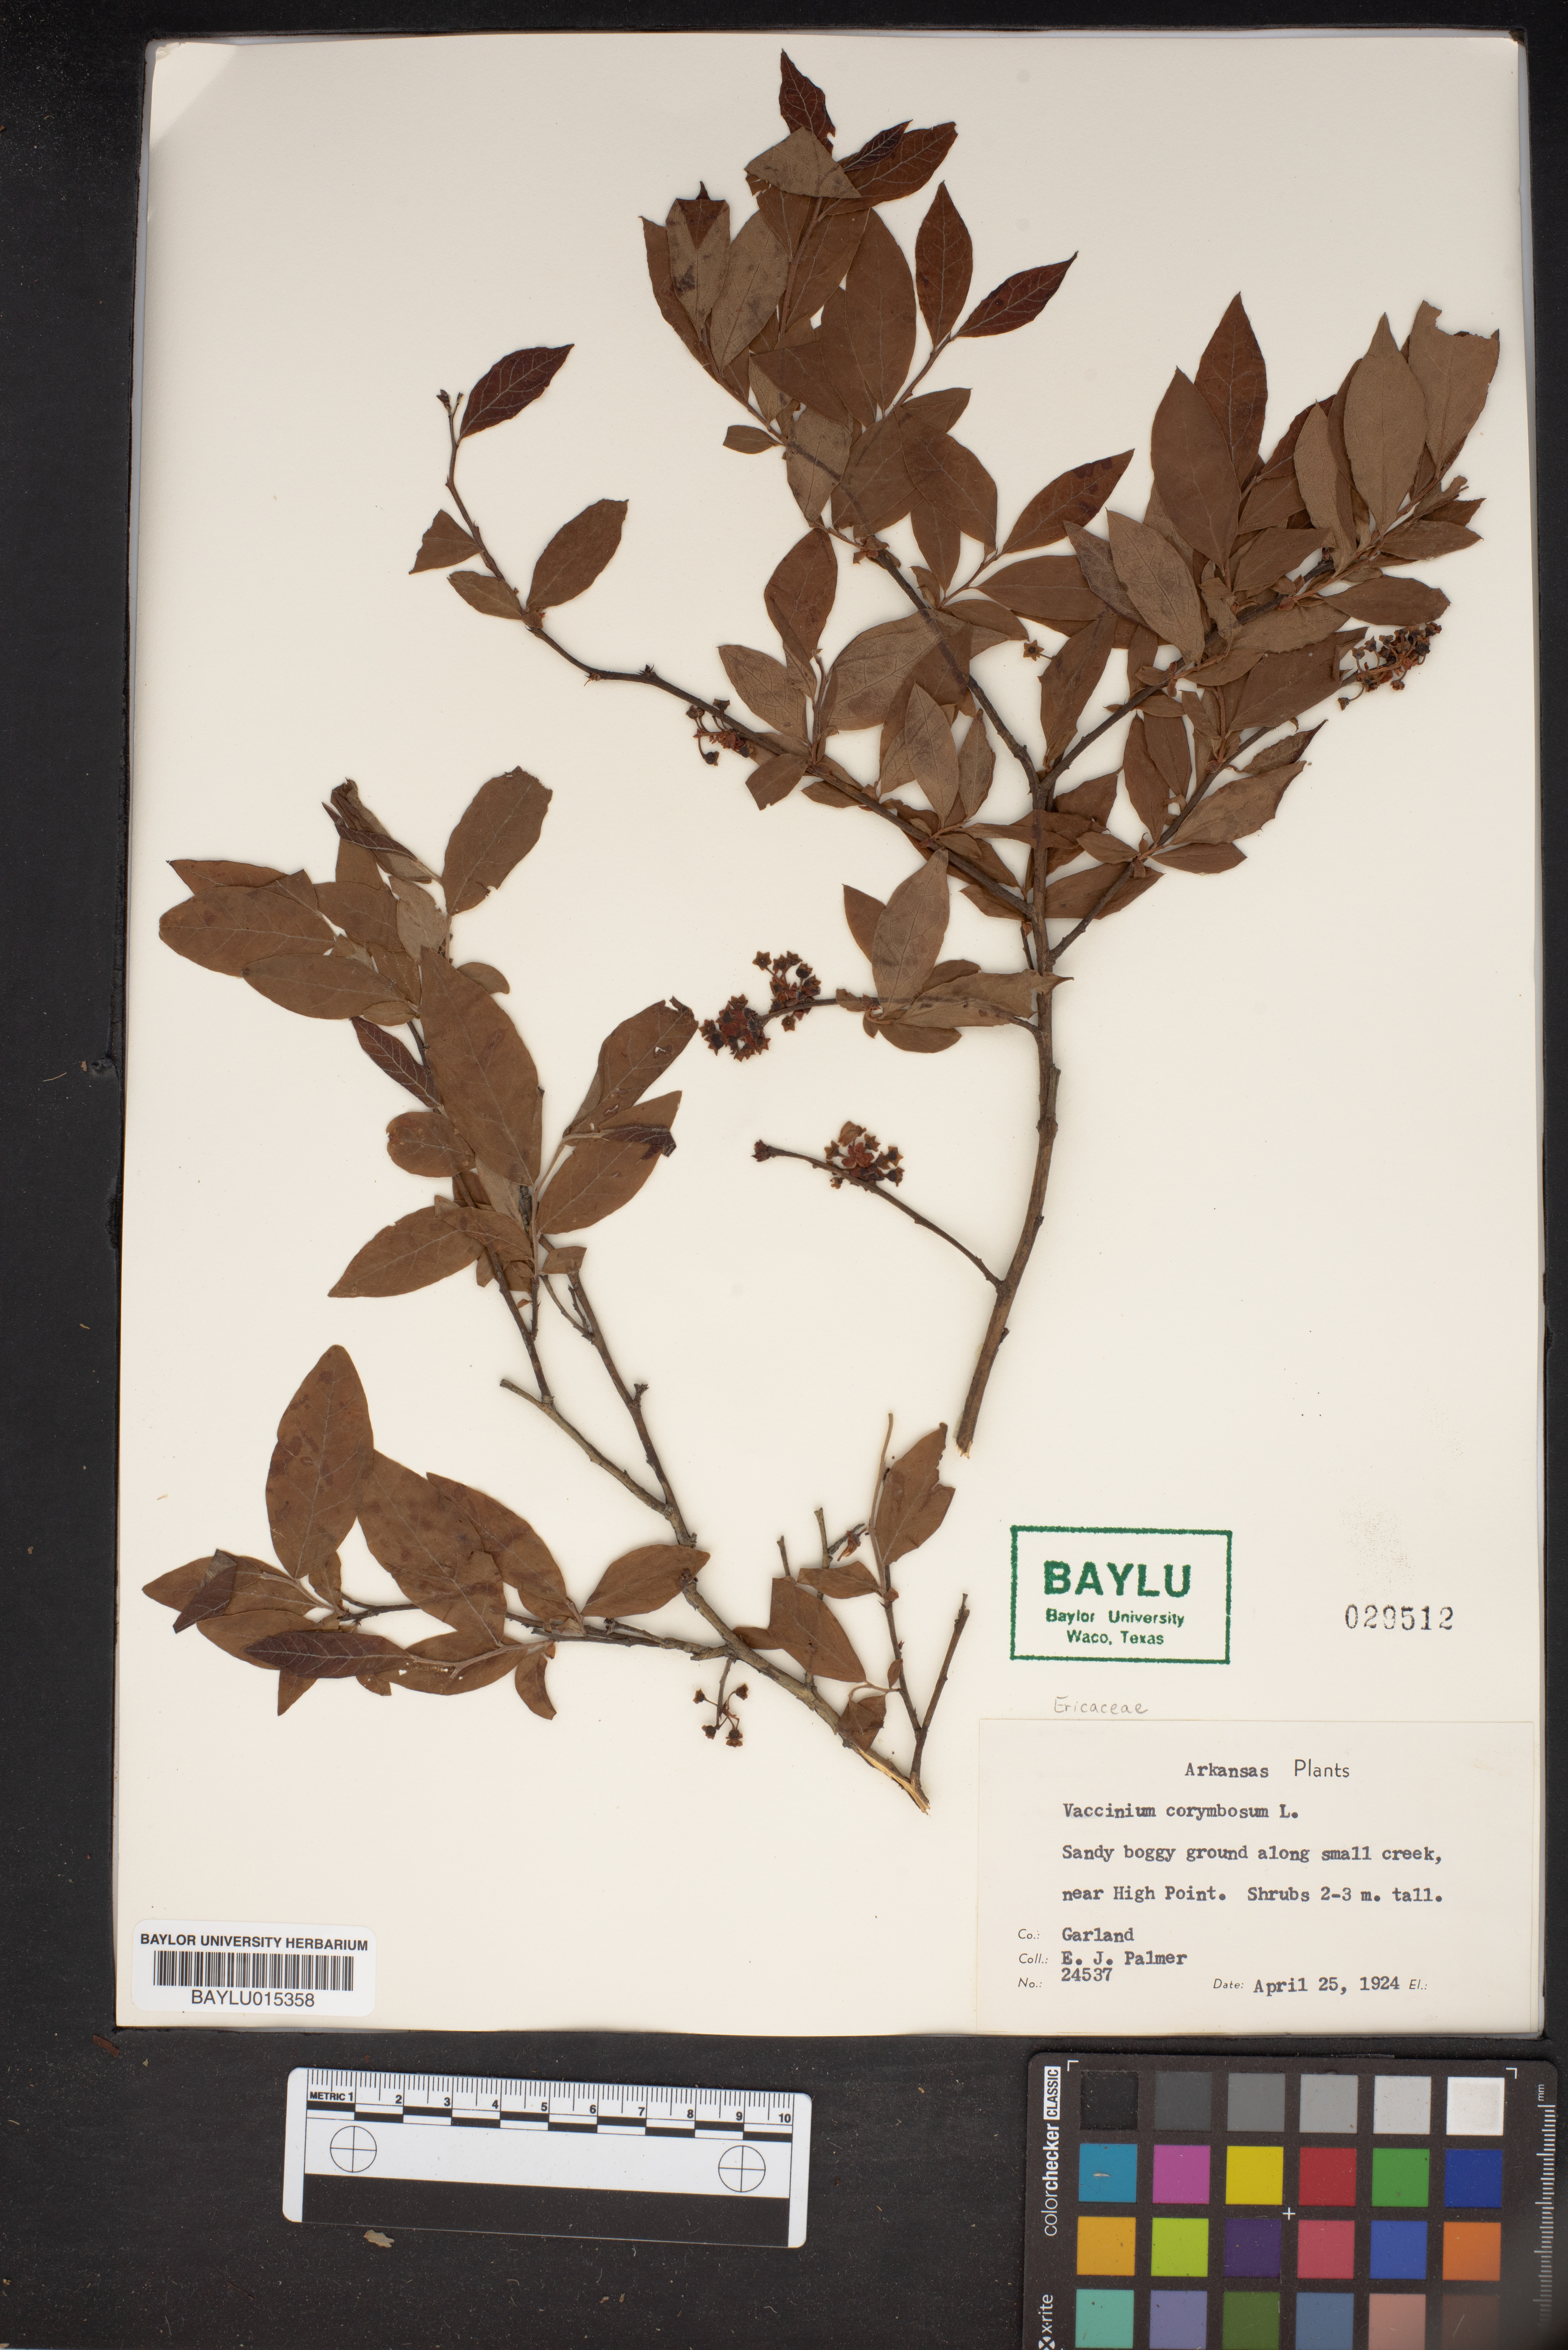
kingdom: Plantae
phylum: Tracheophyta
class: Magnoliopsida
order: Ericales
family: Ericaceae
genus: Vaccinium
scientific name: Vaccinium corymbosum
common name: Blueberry
